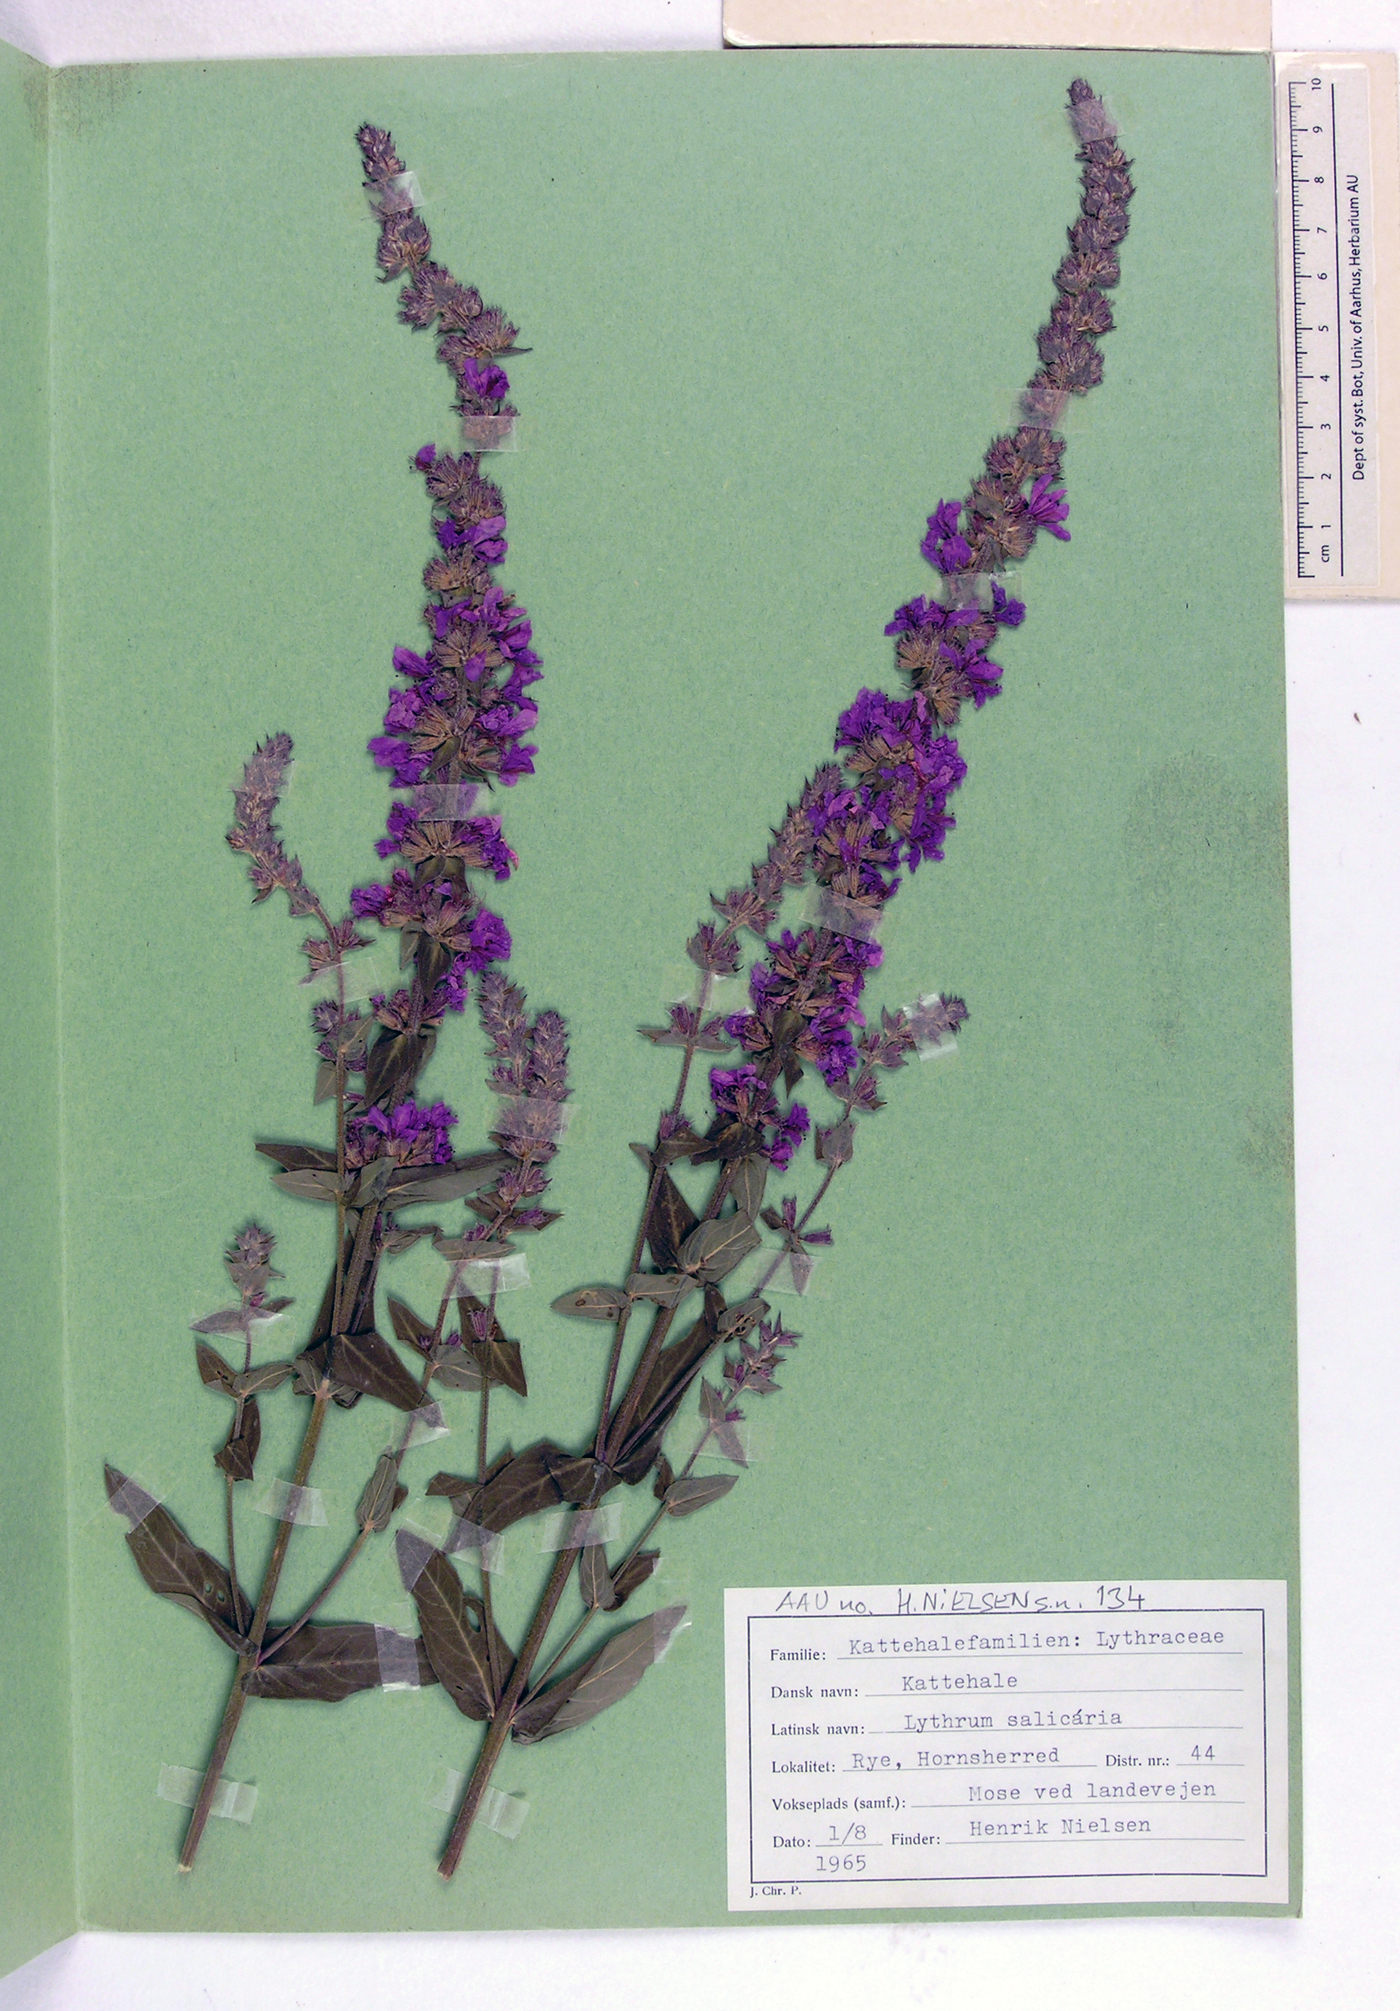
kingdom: Plantae
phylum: Tracheophyta
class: Magnoliopsida
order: Myrtales
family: Lythraceae
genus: Lythrum
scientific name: Lythrum salicaria
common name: Purple loosestrife
